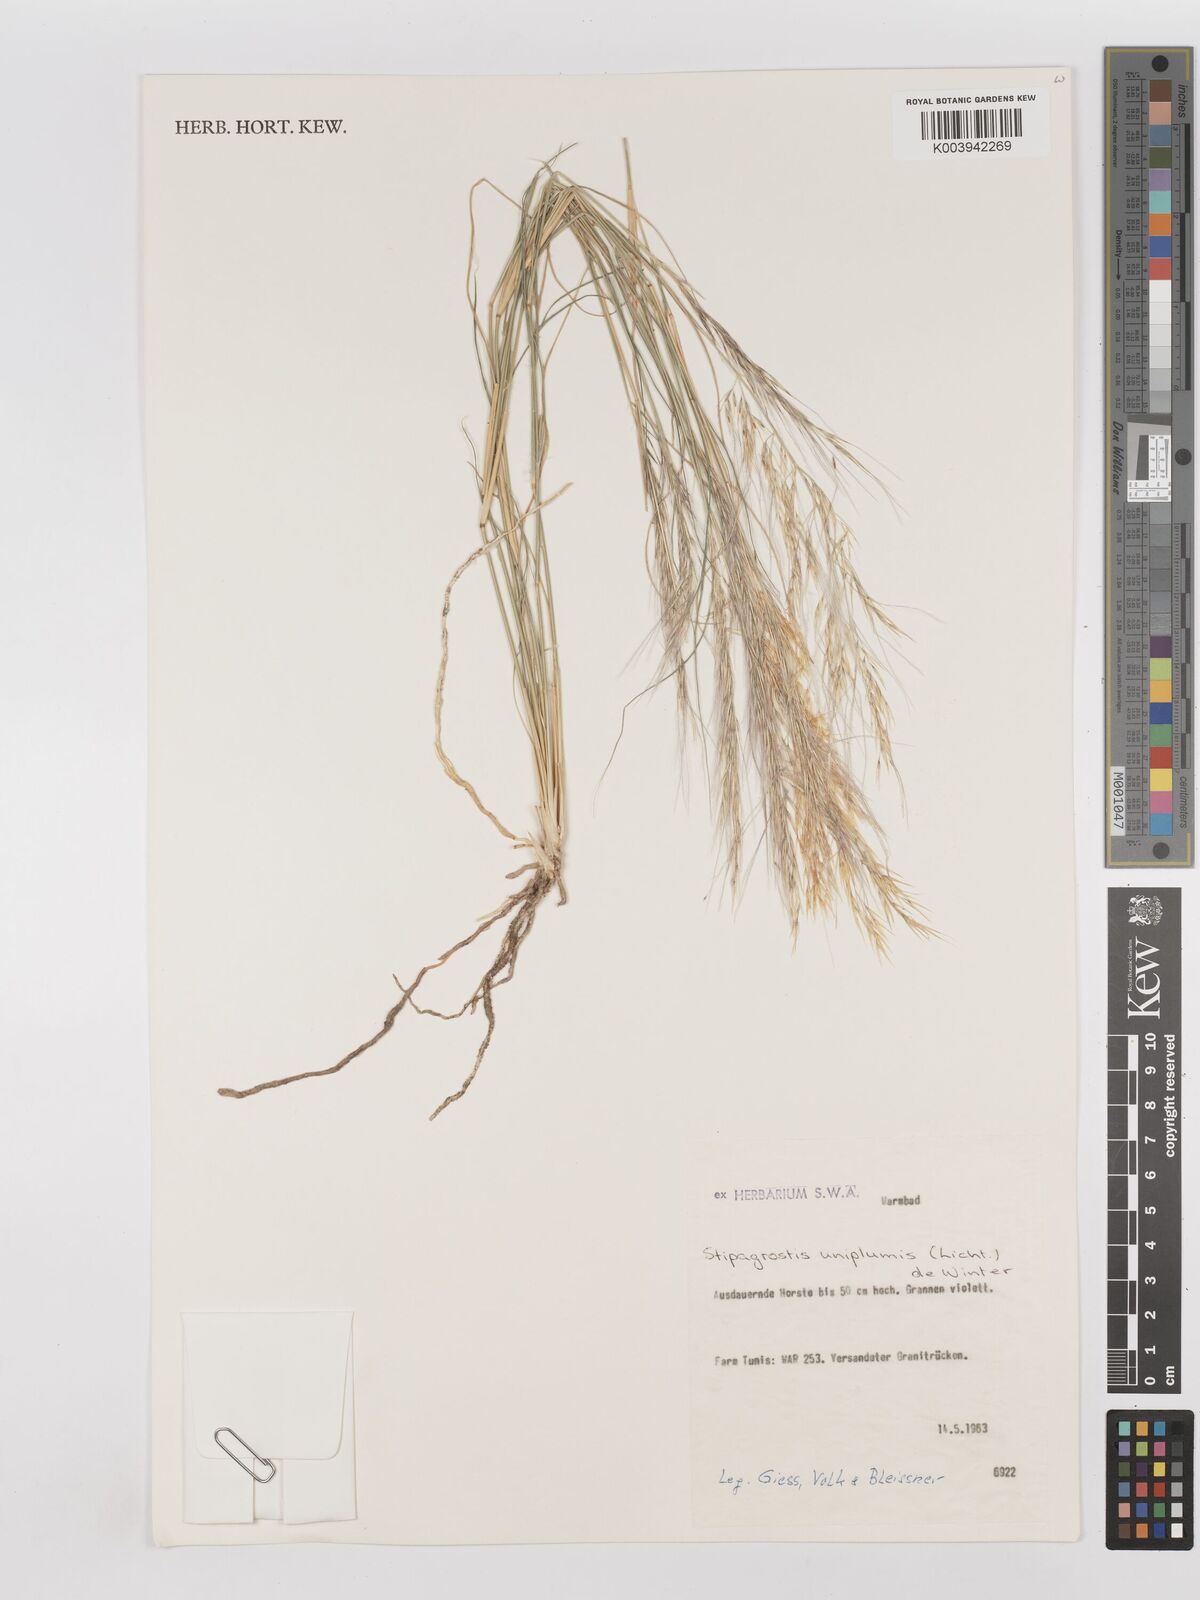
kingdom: Plantae
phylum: Tracheophyta
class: Liliopsida
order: Poales
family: Poaceae
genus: Stipagrostis
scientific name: Stipagrostis uniplumis
